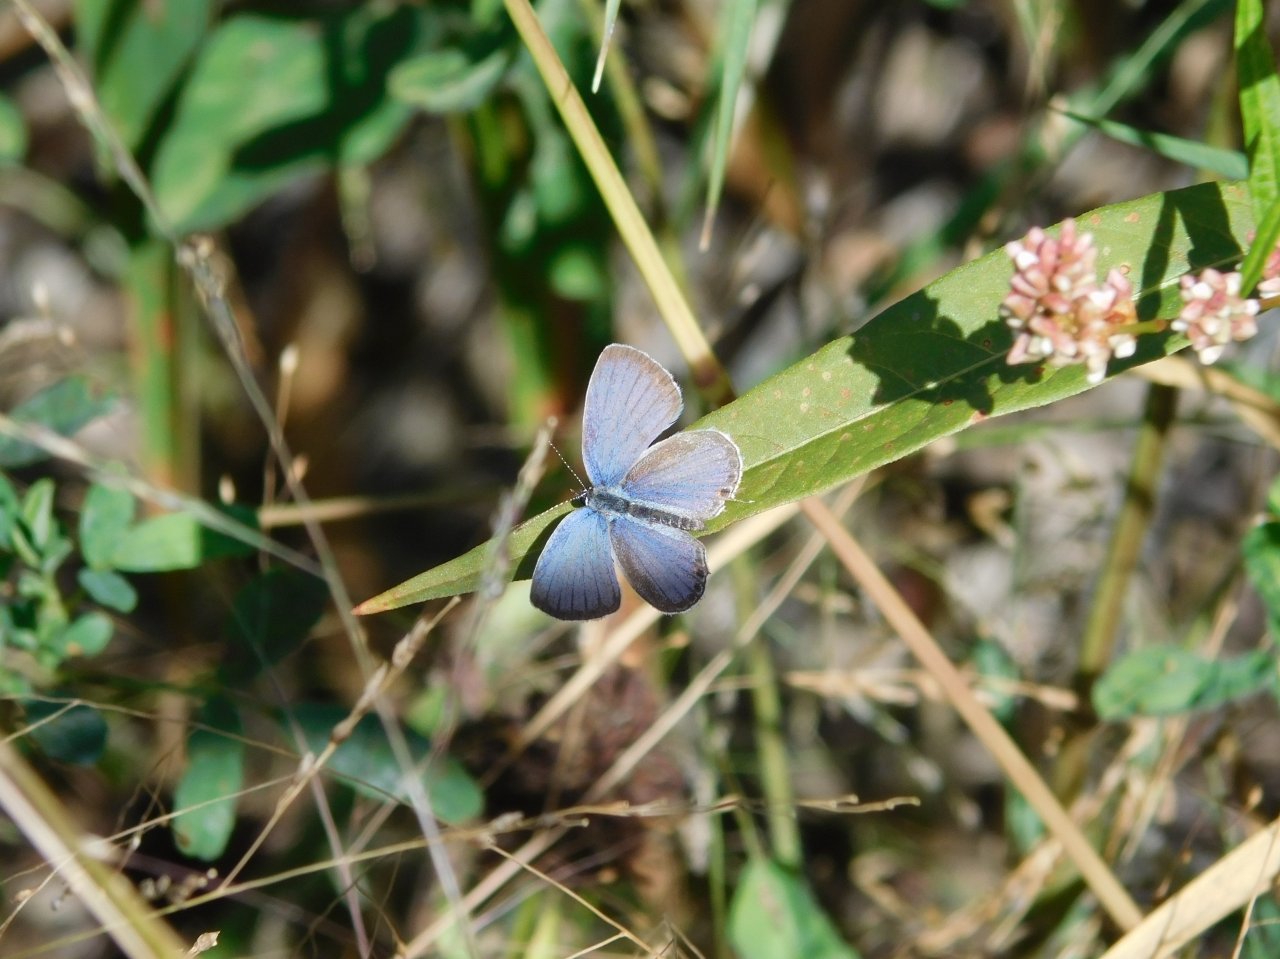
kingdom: Animalia
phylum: Arthropoda
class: Insecta
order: Lepidoptera
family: Lycaenidae
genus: Elkalyce
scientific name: Elkalyce comyntas
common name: Eastern Tailed-Blue
